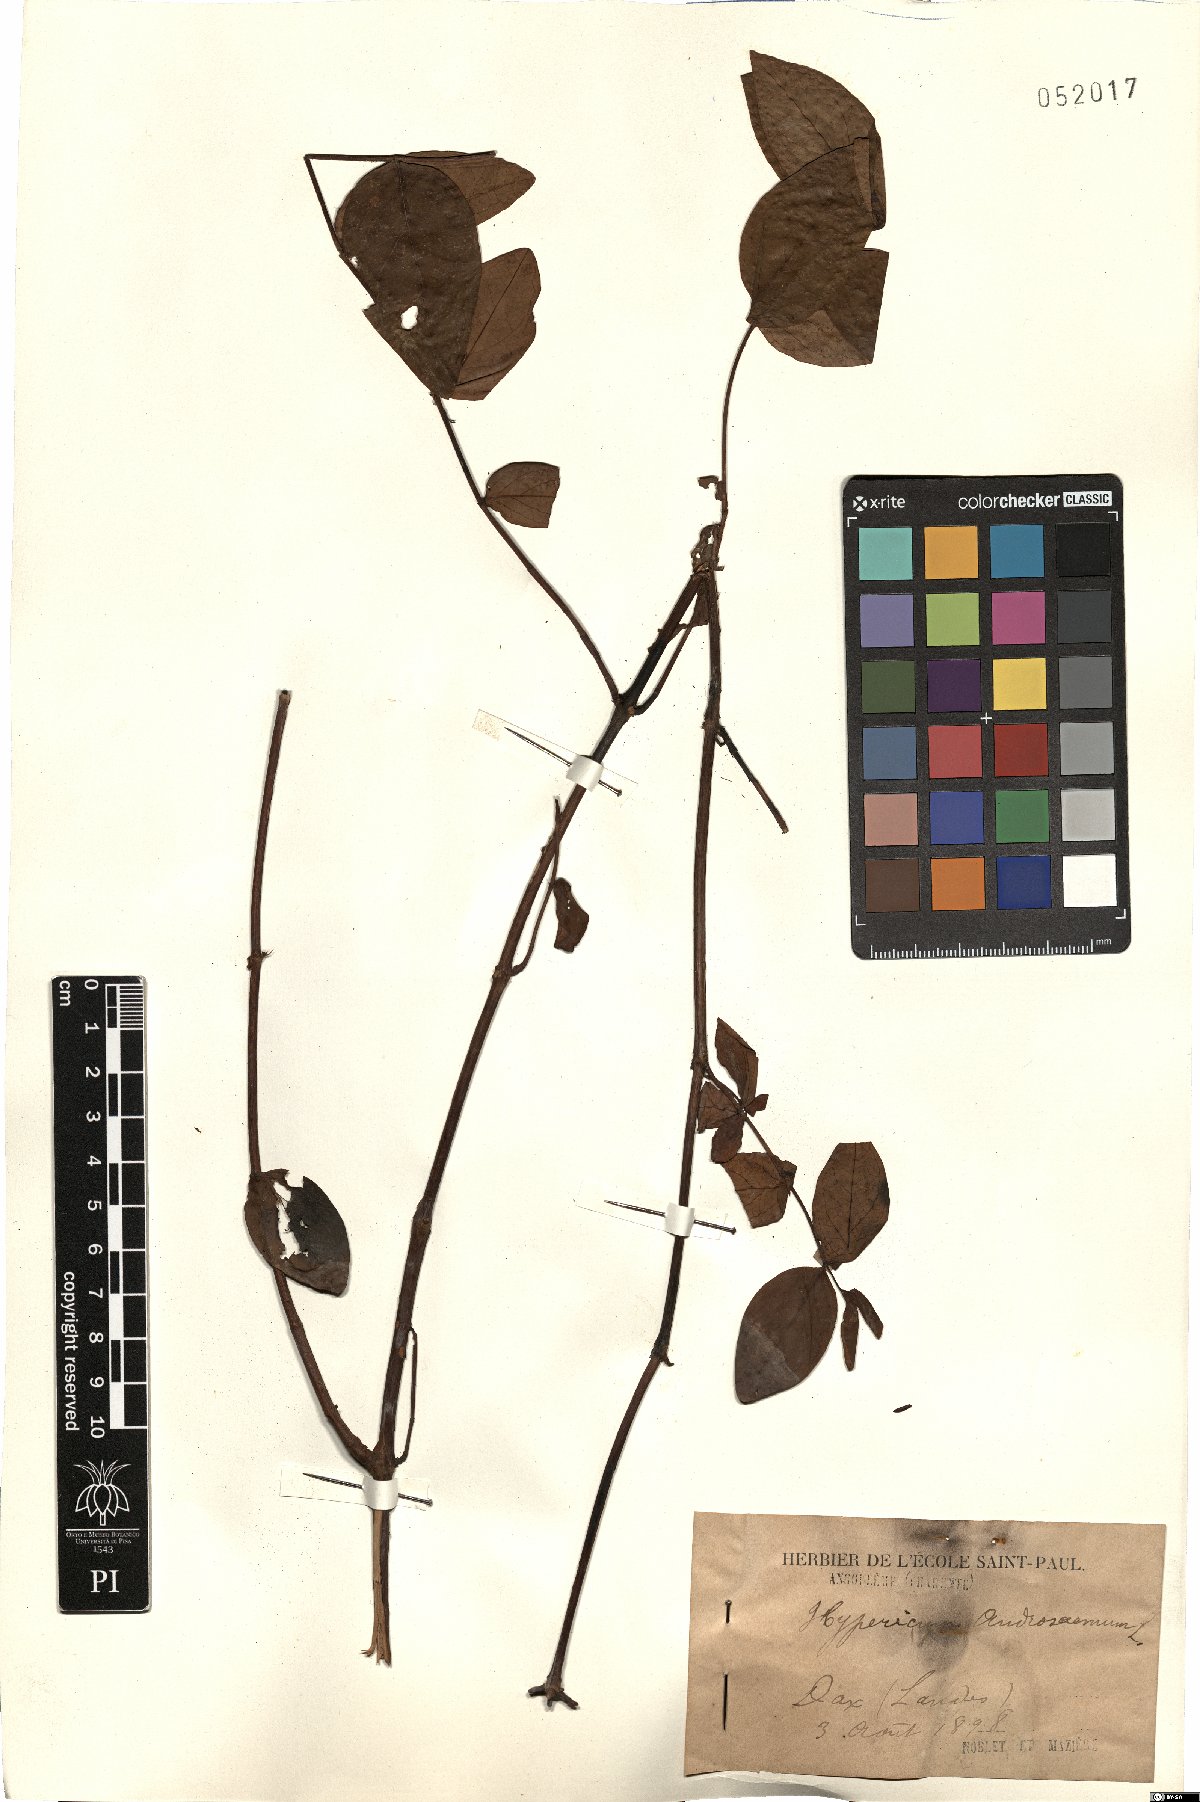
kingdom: Plantae
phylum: Tracheophyta
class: Magnoliopsida
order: Malpighiales
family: Hypericaceae
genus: Hypericum
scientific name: Hypericum androsaemum
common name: Sweet-amber
